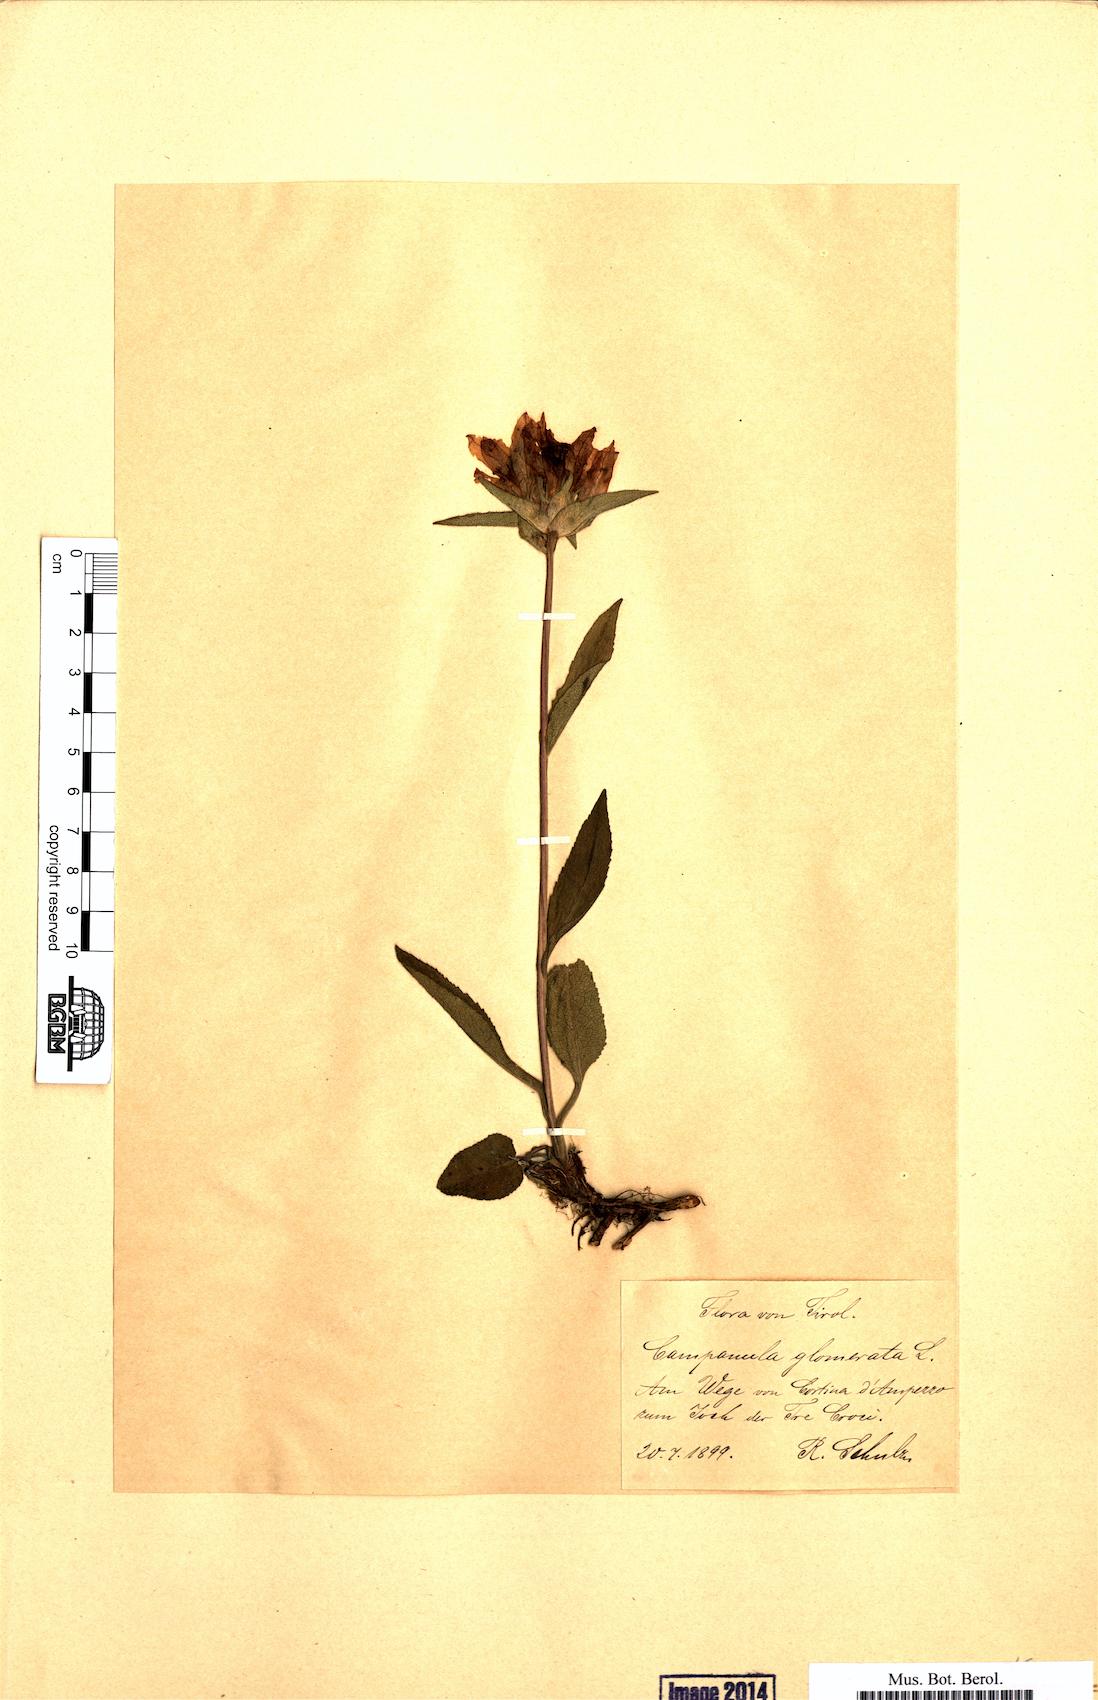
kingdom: Plantae
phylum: Tracheophyta
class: Magnoliopsida
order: Asterales
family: Campanulaceae
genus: Campanula
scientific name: Campanula glomerata
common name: Clustered bellflower
